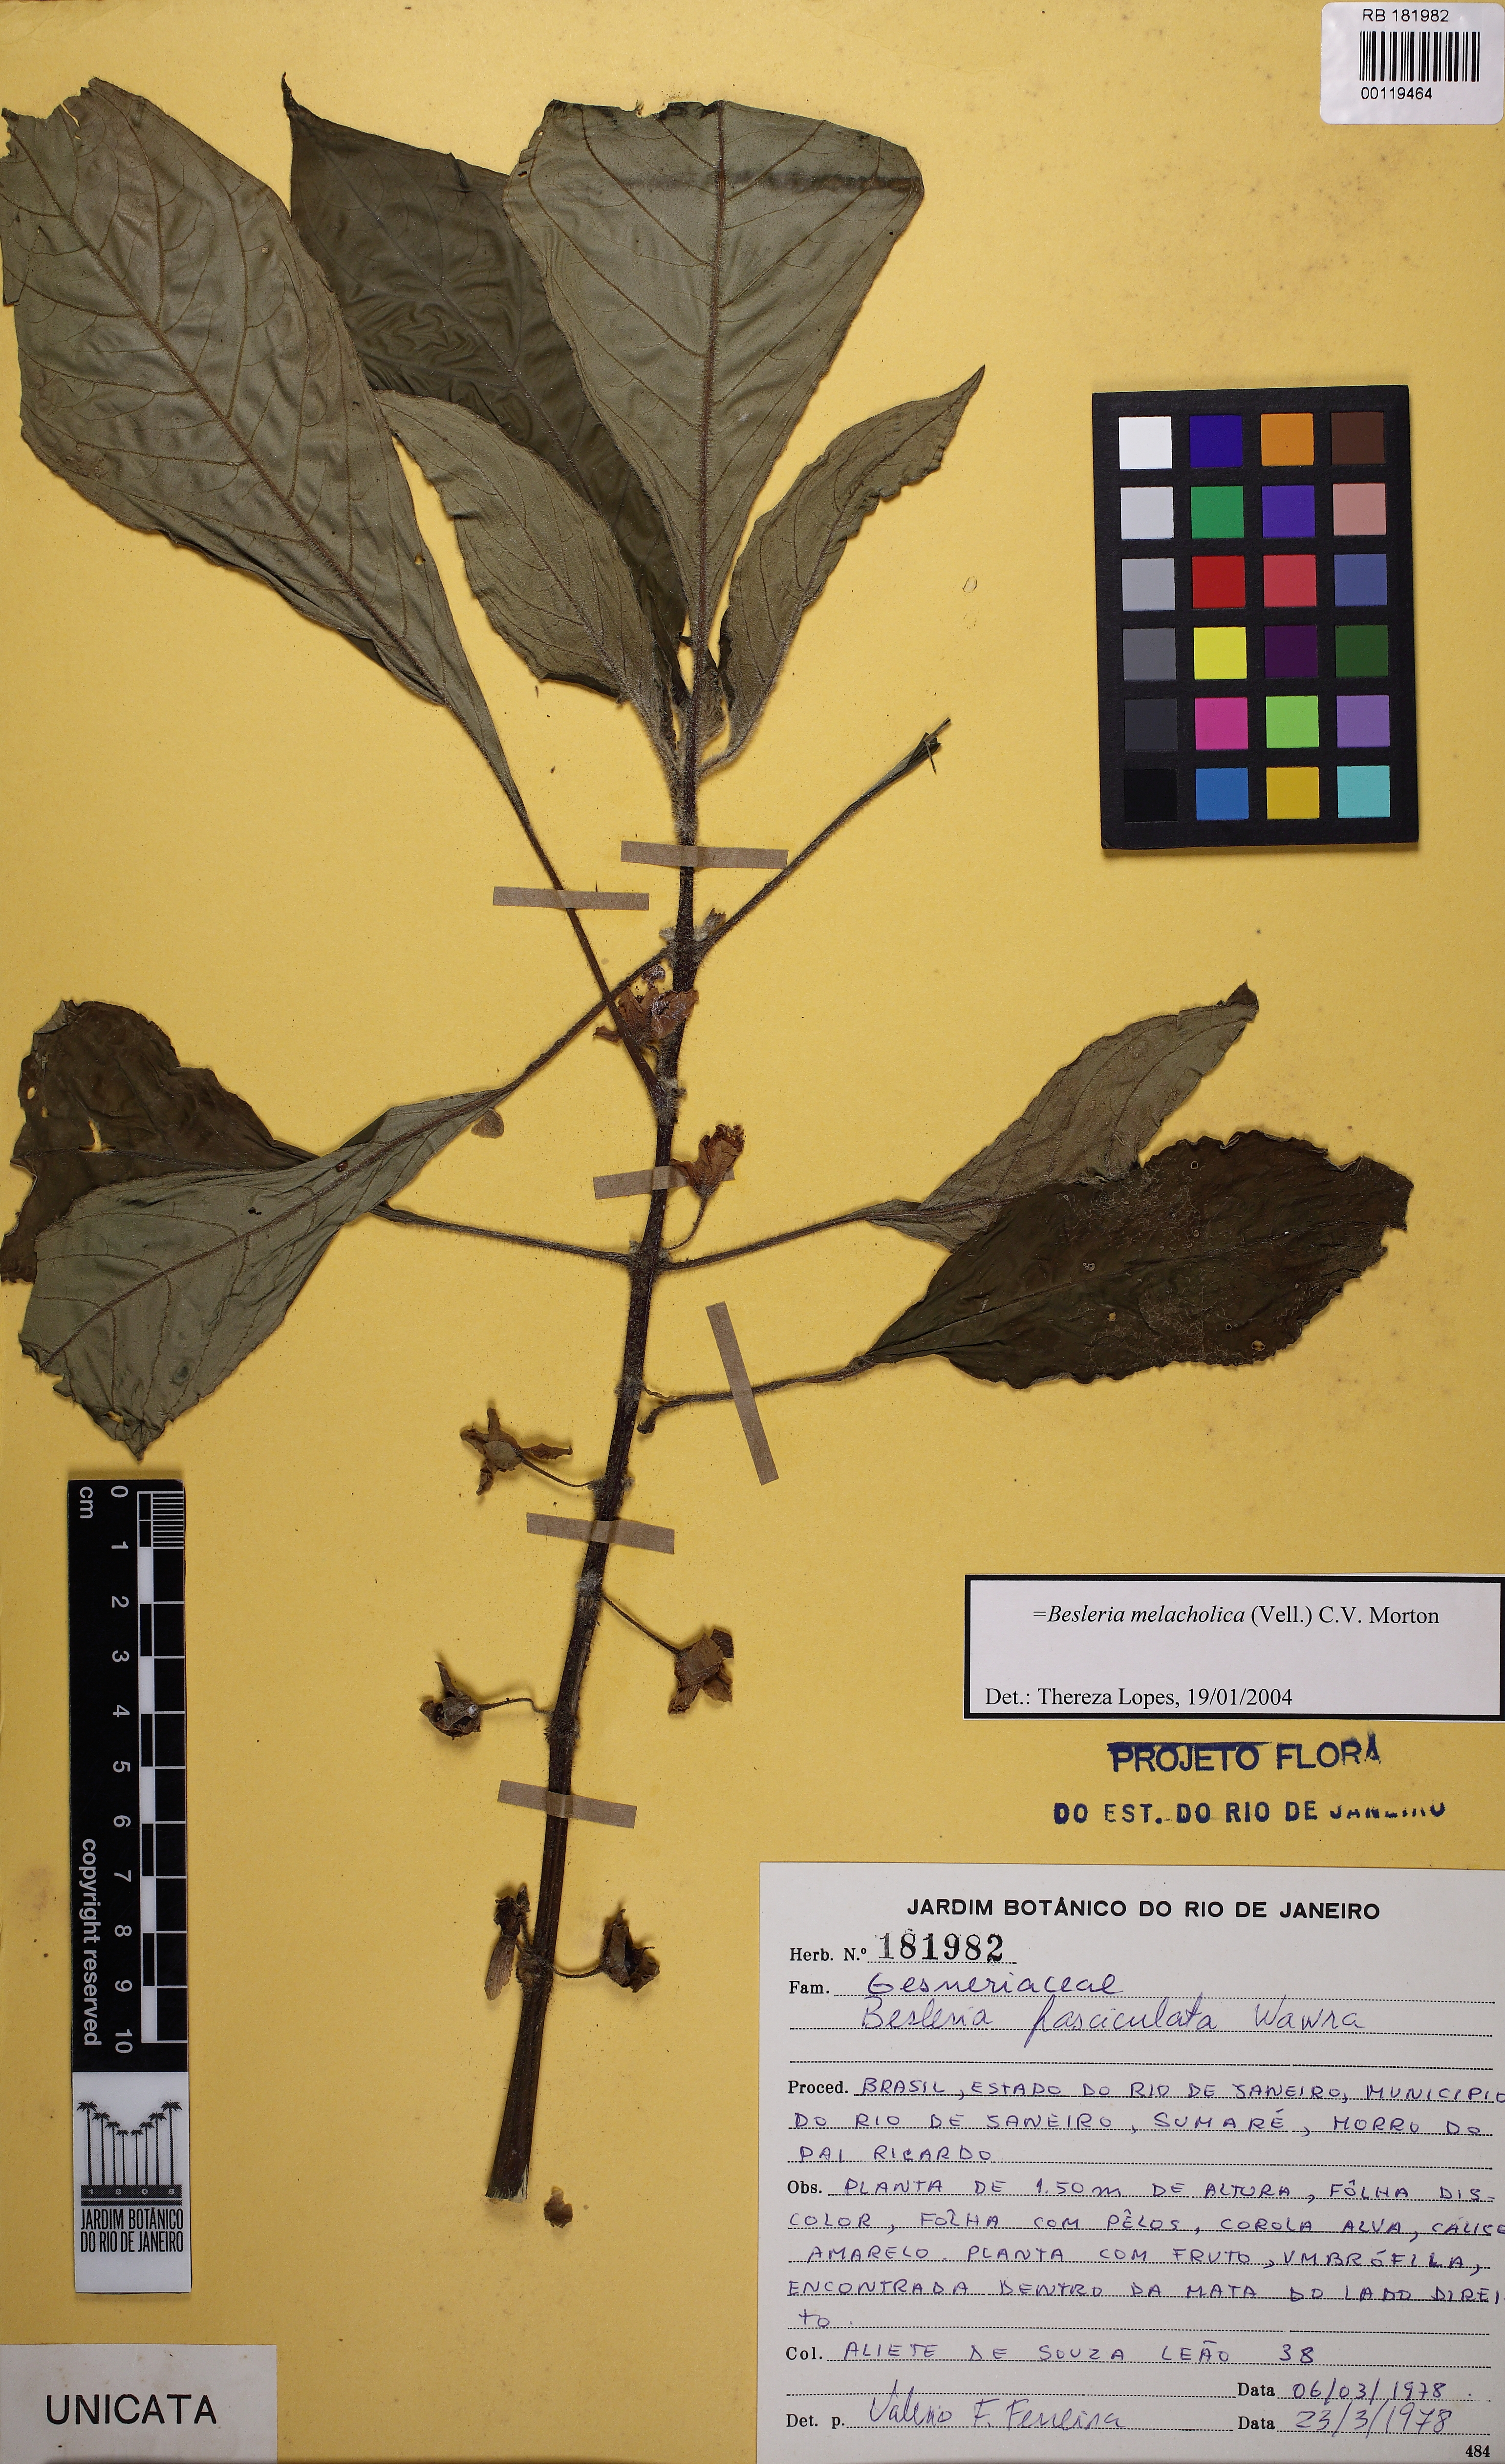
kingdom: Plantae
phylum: Tracheophyta
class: Magnoliopsida
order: Lamiales
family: Gesneriaceae
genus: Besleria
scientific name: Besleria melancholica
